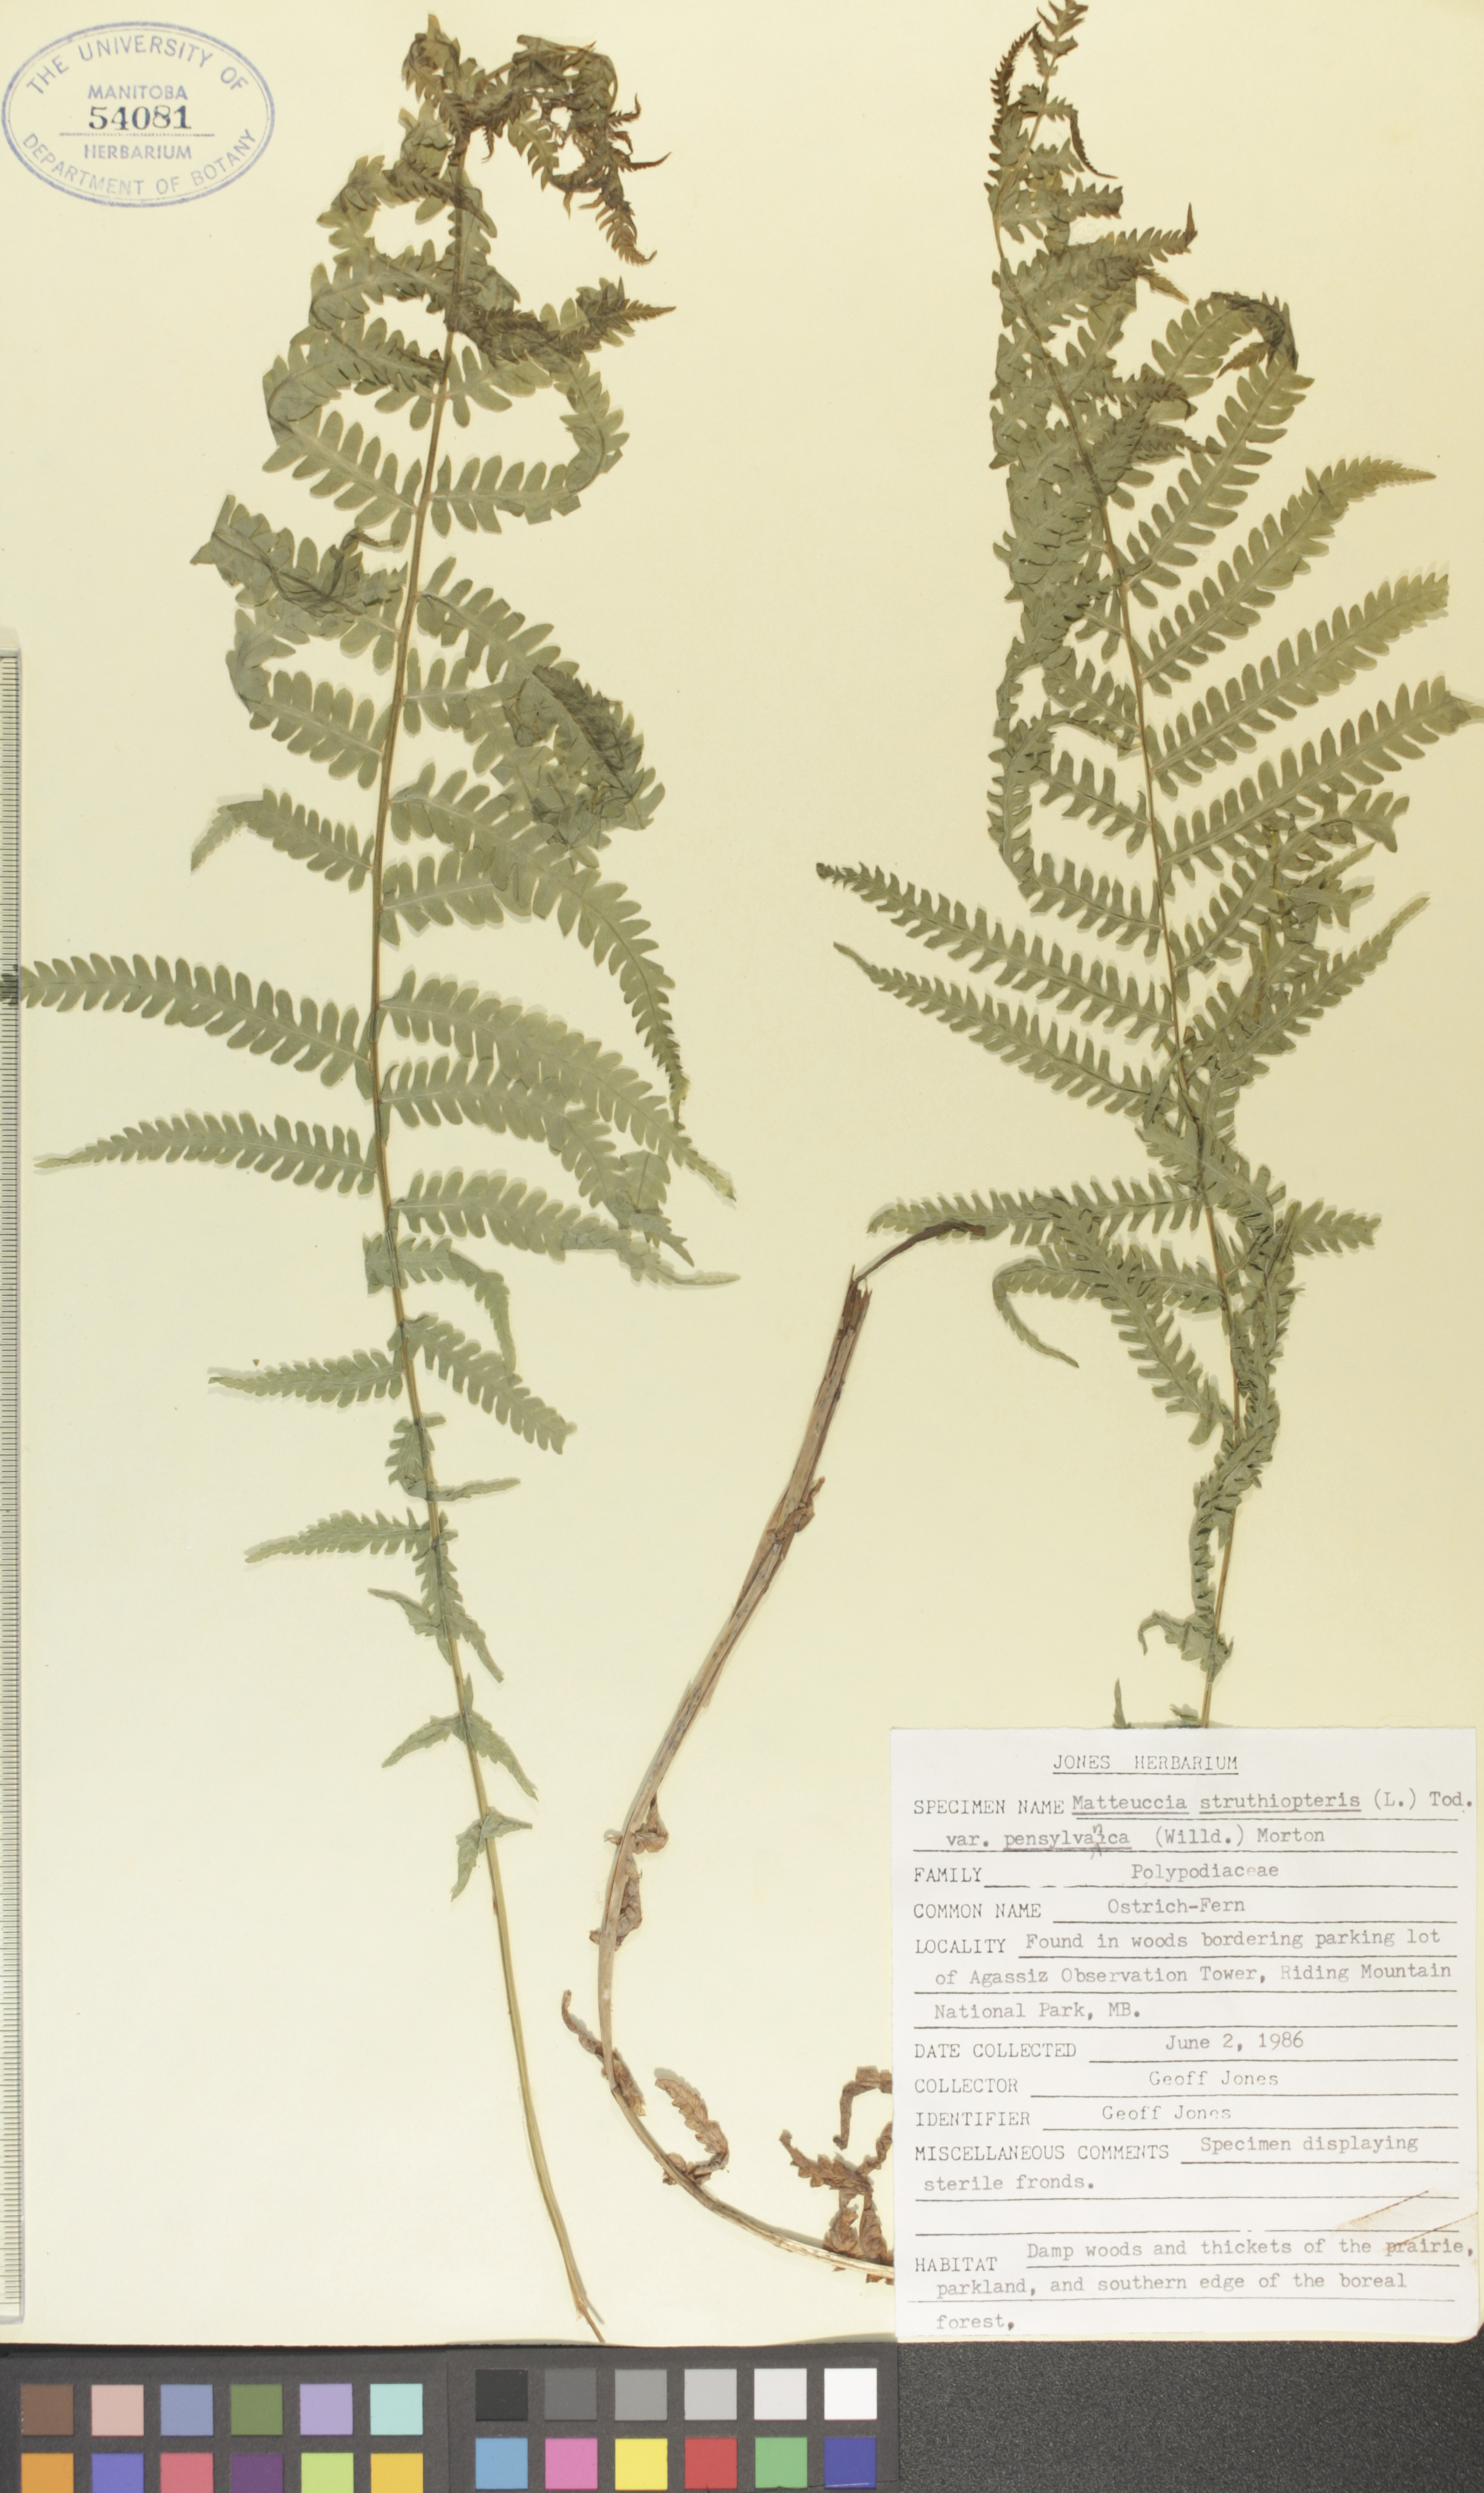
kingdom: Plantae
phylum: Tracheophyta
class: Polypodiopsida
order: Polypodiales
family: Onocleaceae
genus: Matteuccia
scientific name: Matteuccia pensylvanica
